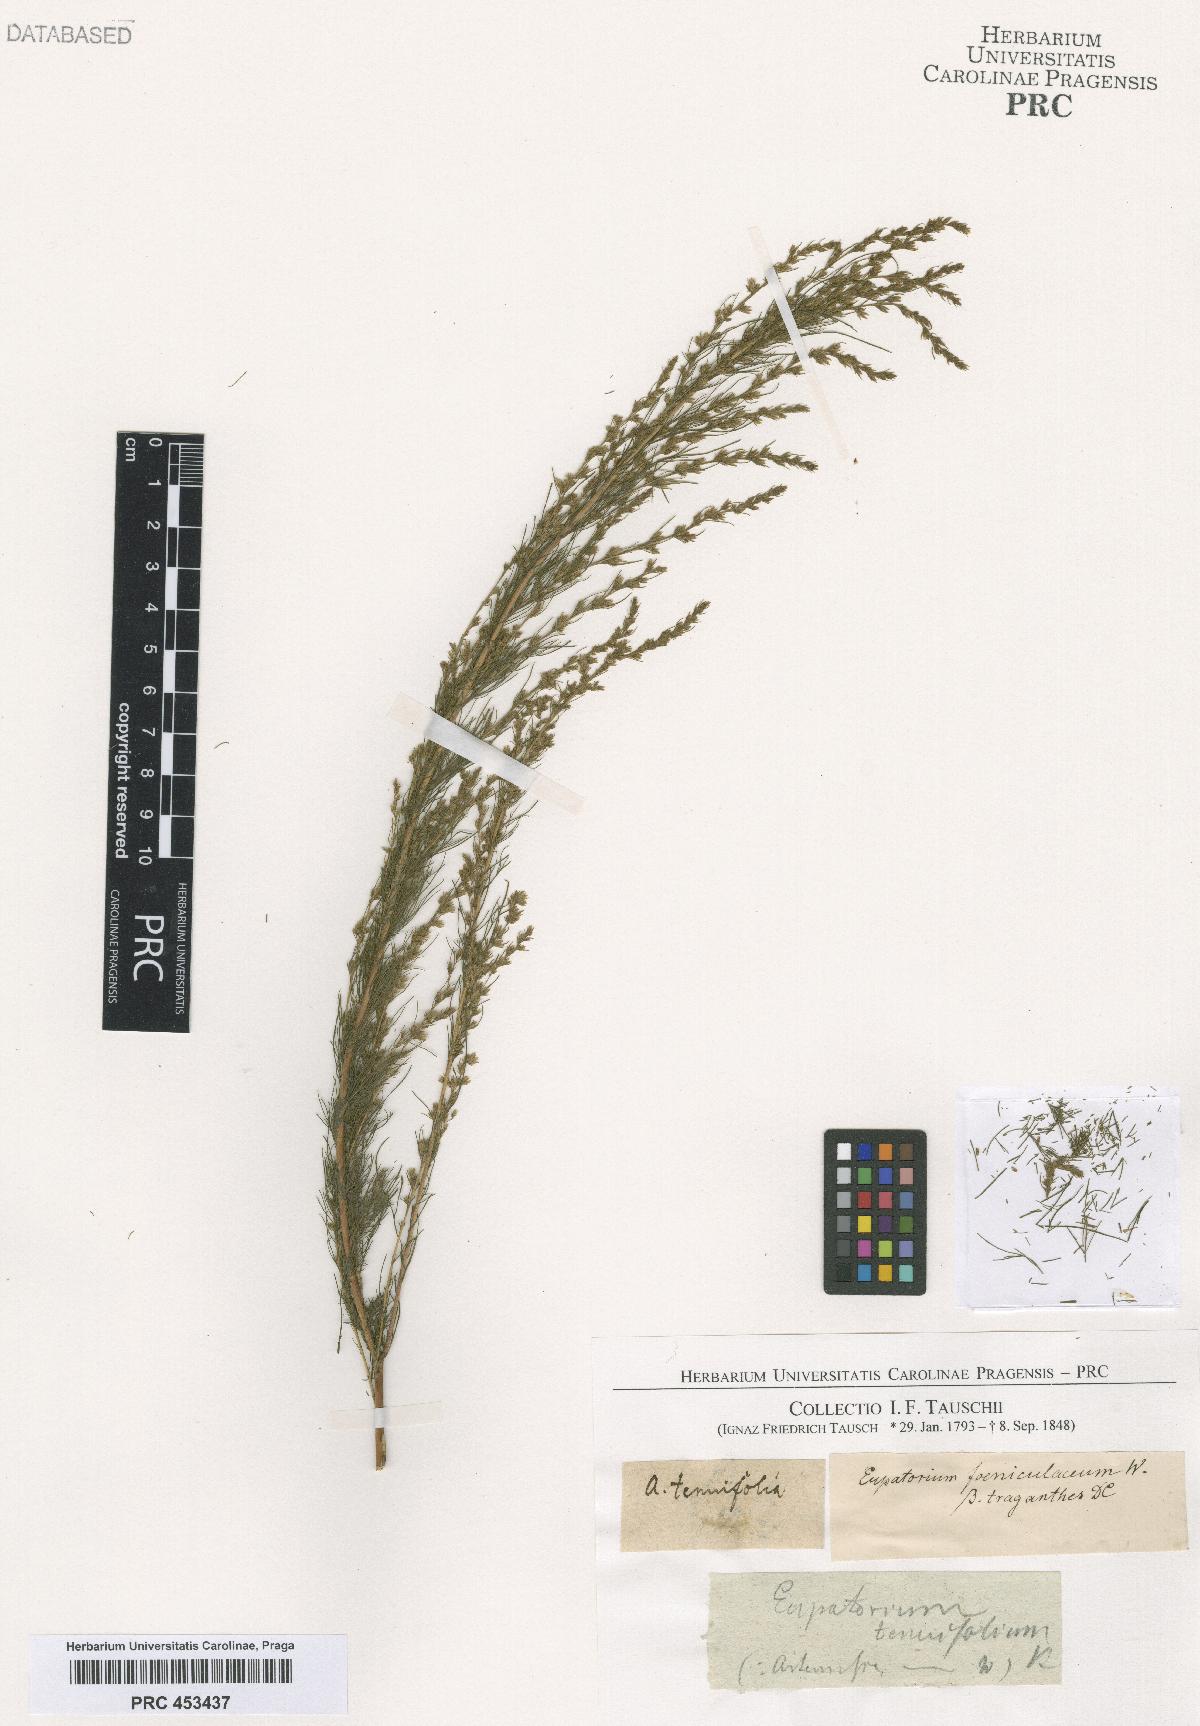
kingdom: Plantae
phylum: Tracheophyta
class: Magnoliopsida
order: Asterales
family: Asteraceae
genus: Eupatorium
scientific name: Eupatorium
